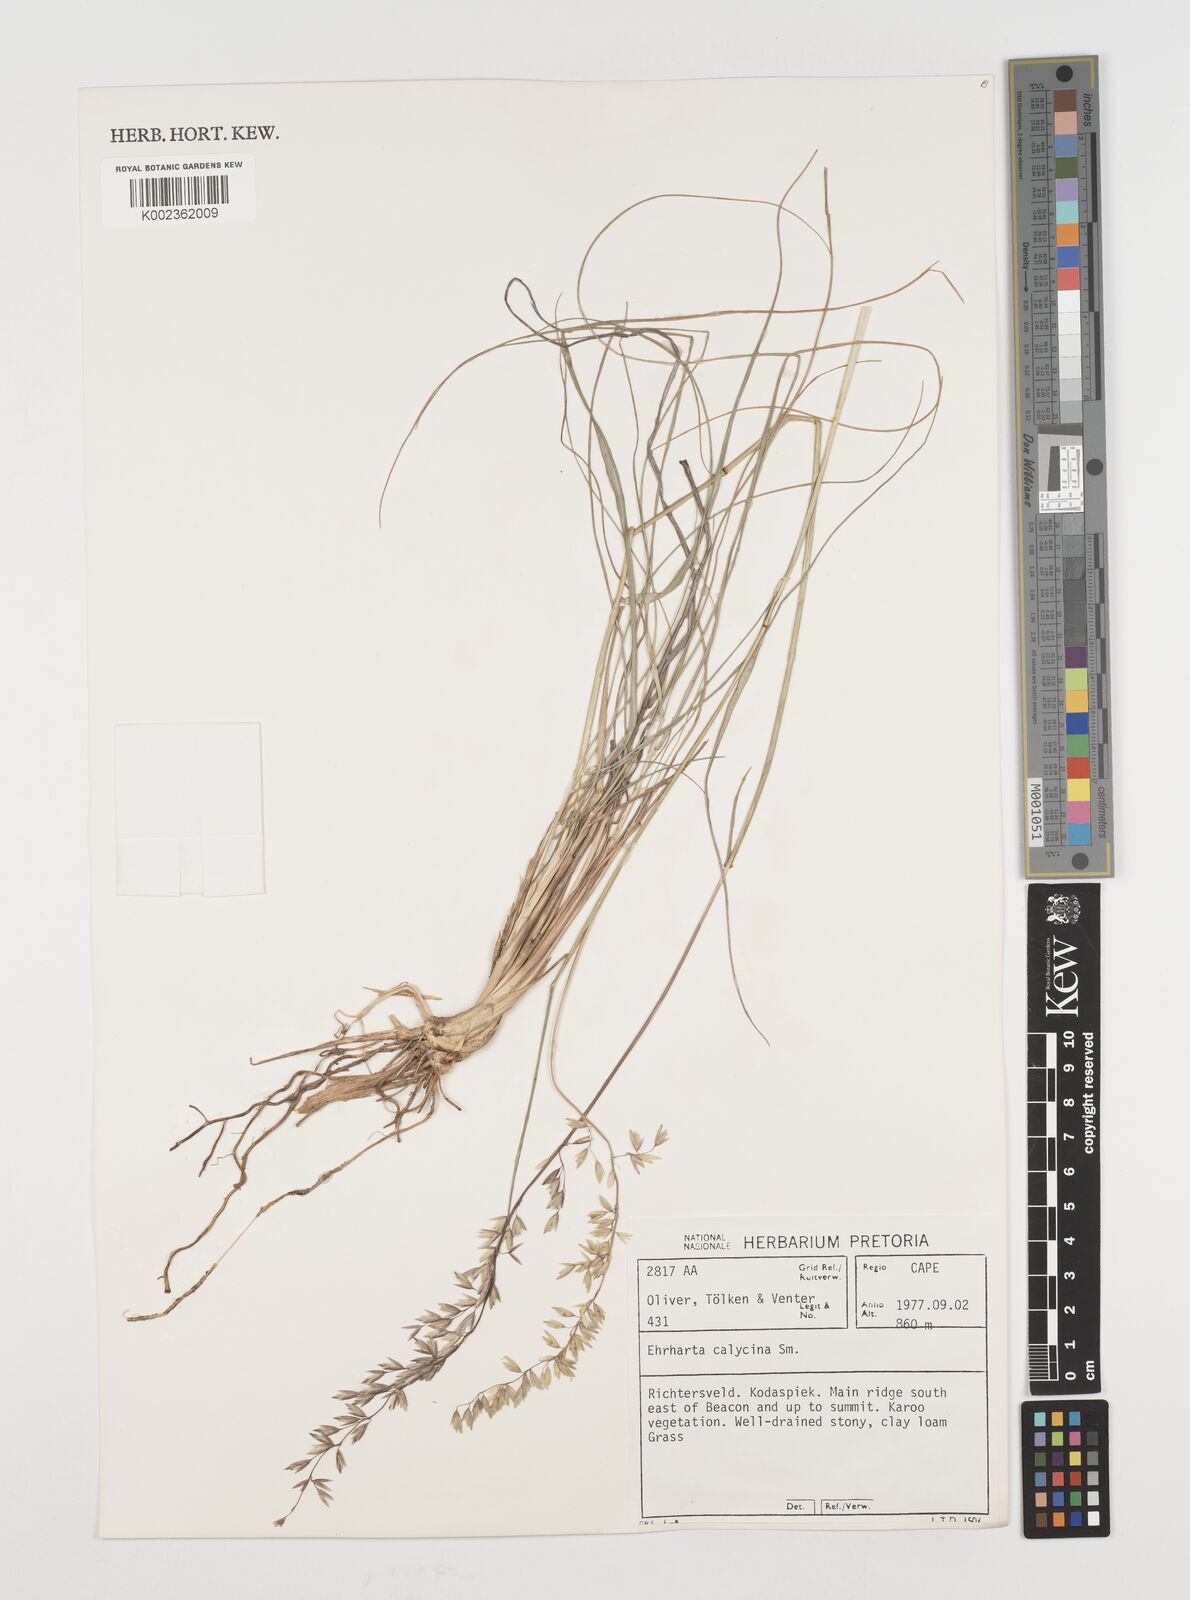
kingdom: Plantae
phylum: Tracheophyta
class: Liliopsida
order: Poales
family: Poaceae
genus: Ehrharta
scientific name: Ehrharta calycina
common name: Perennial veldtgrass
